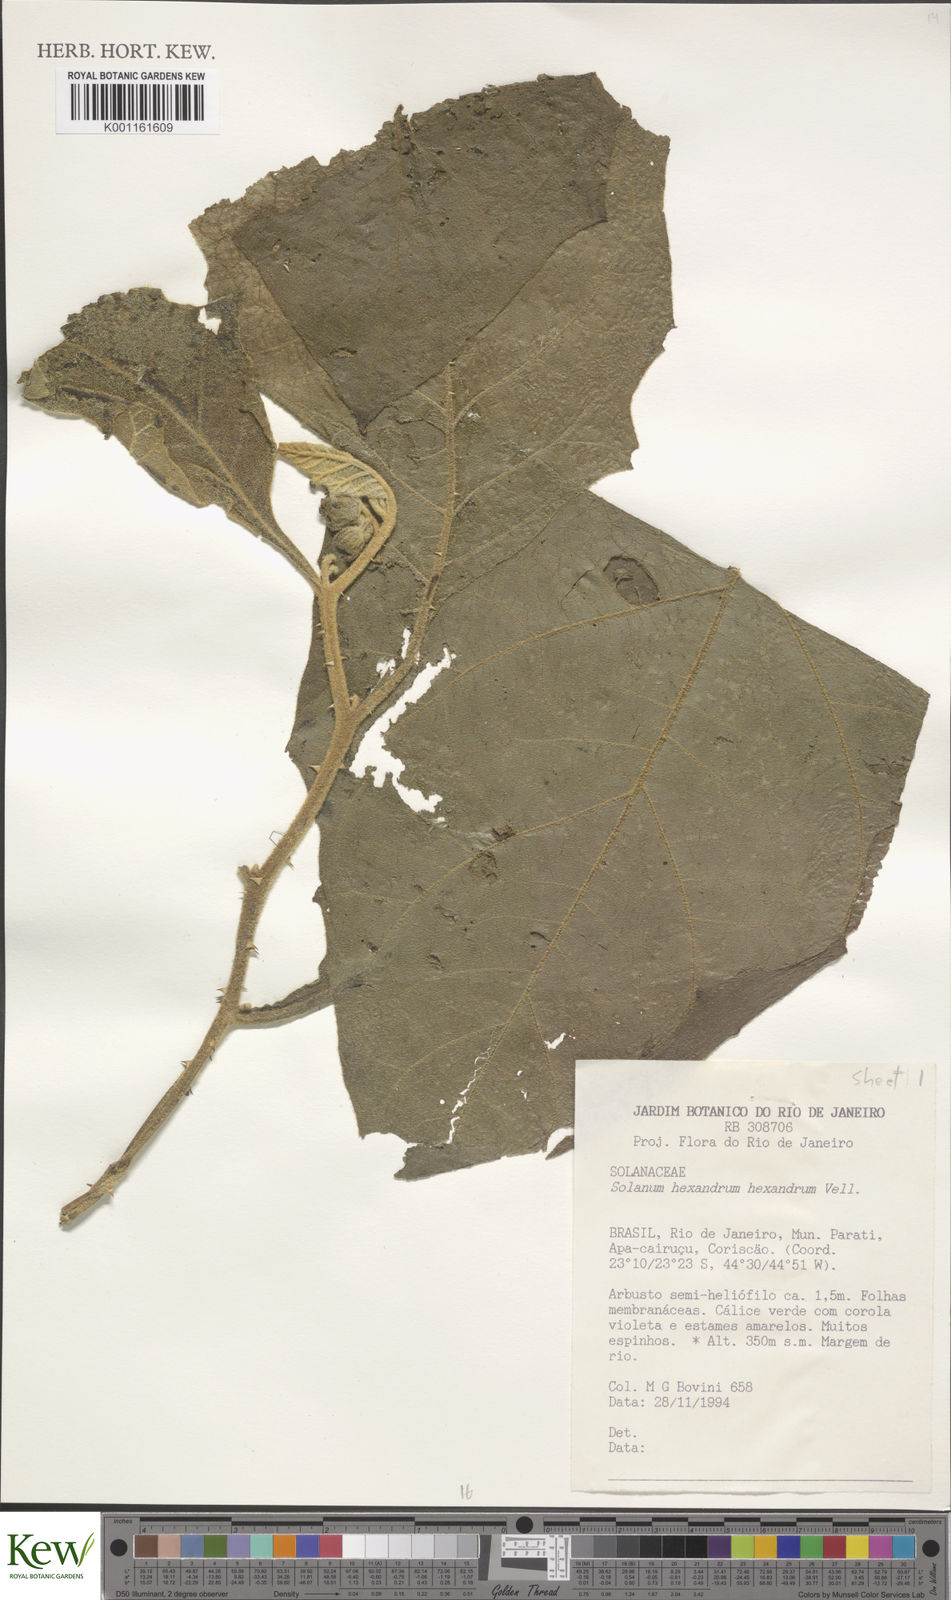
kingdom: Plantae
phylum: Tracheophyta
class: Magnoliopsida
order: Solanales
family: Solanaceae
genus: Solanum
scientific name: Solanum hexandrum
